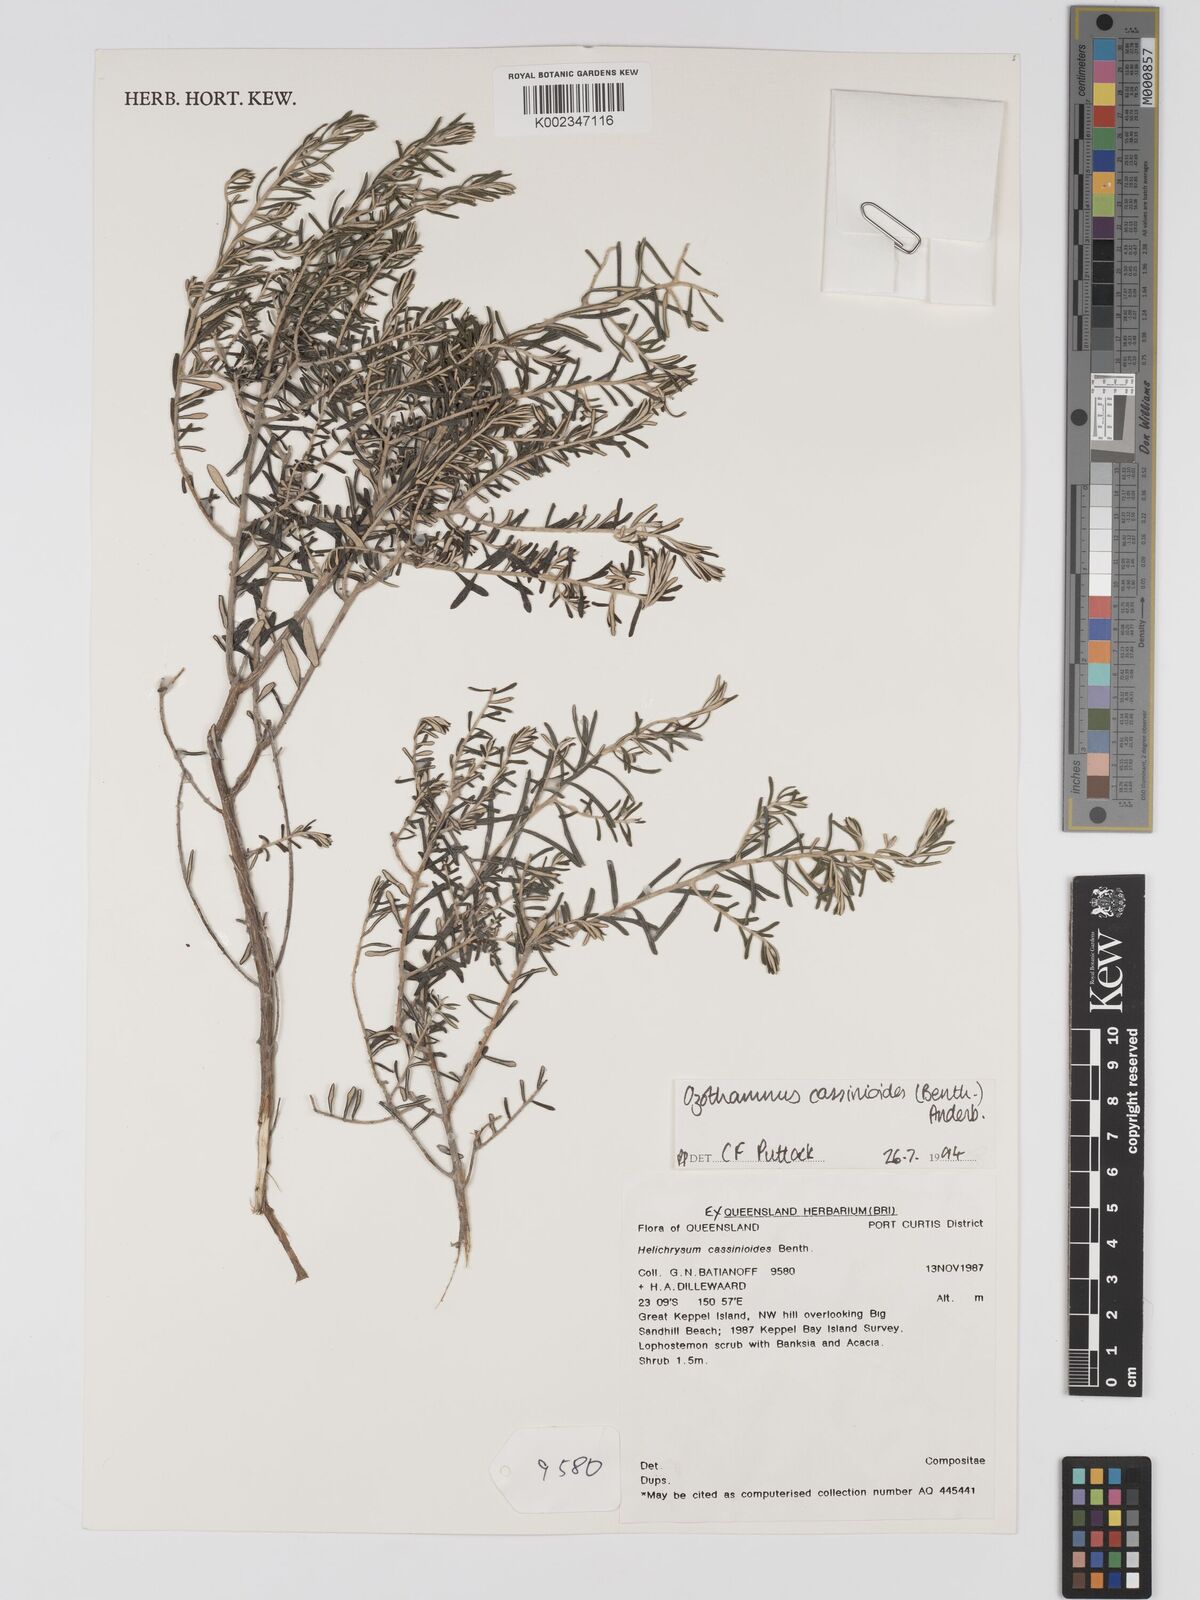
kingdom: Plantae
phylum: Tracheophyta
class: Magnoliopsida
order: Asterales
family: Asteraceae
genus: Ozothamnus
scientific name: Ozothamnus cassinioides
